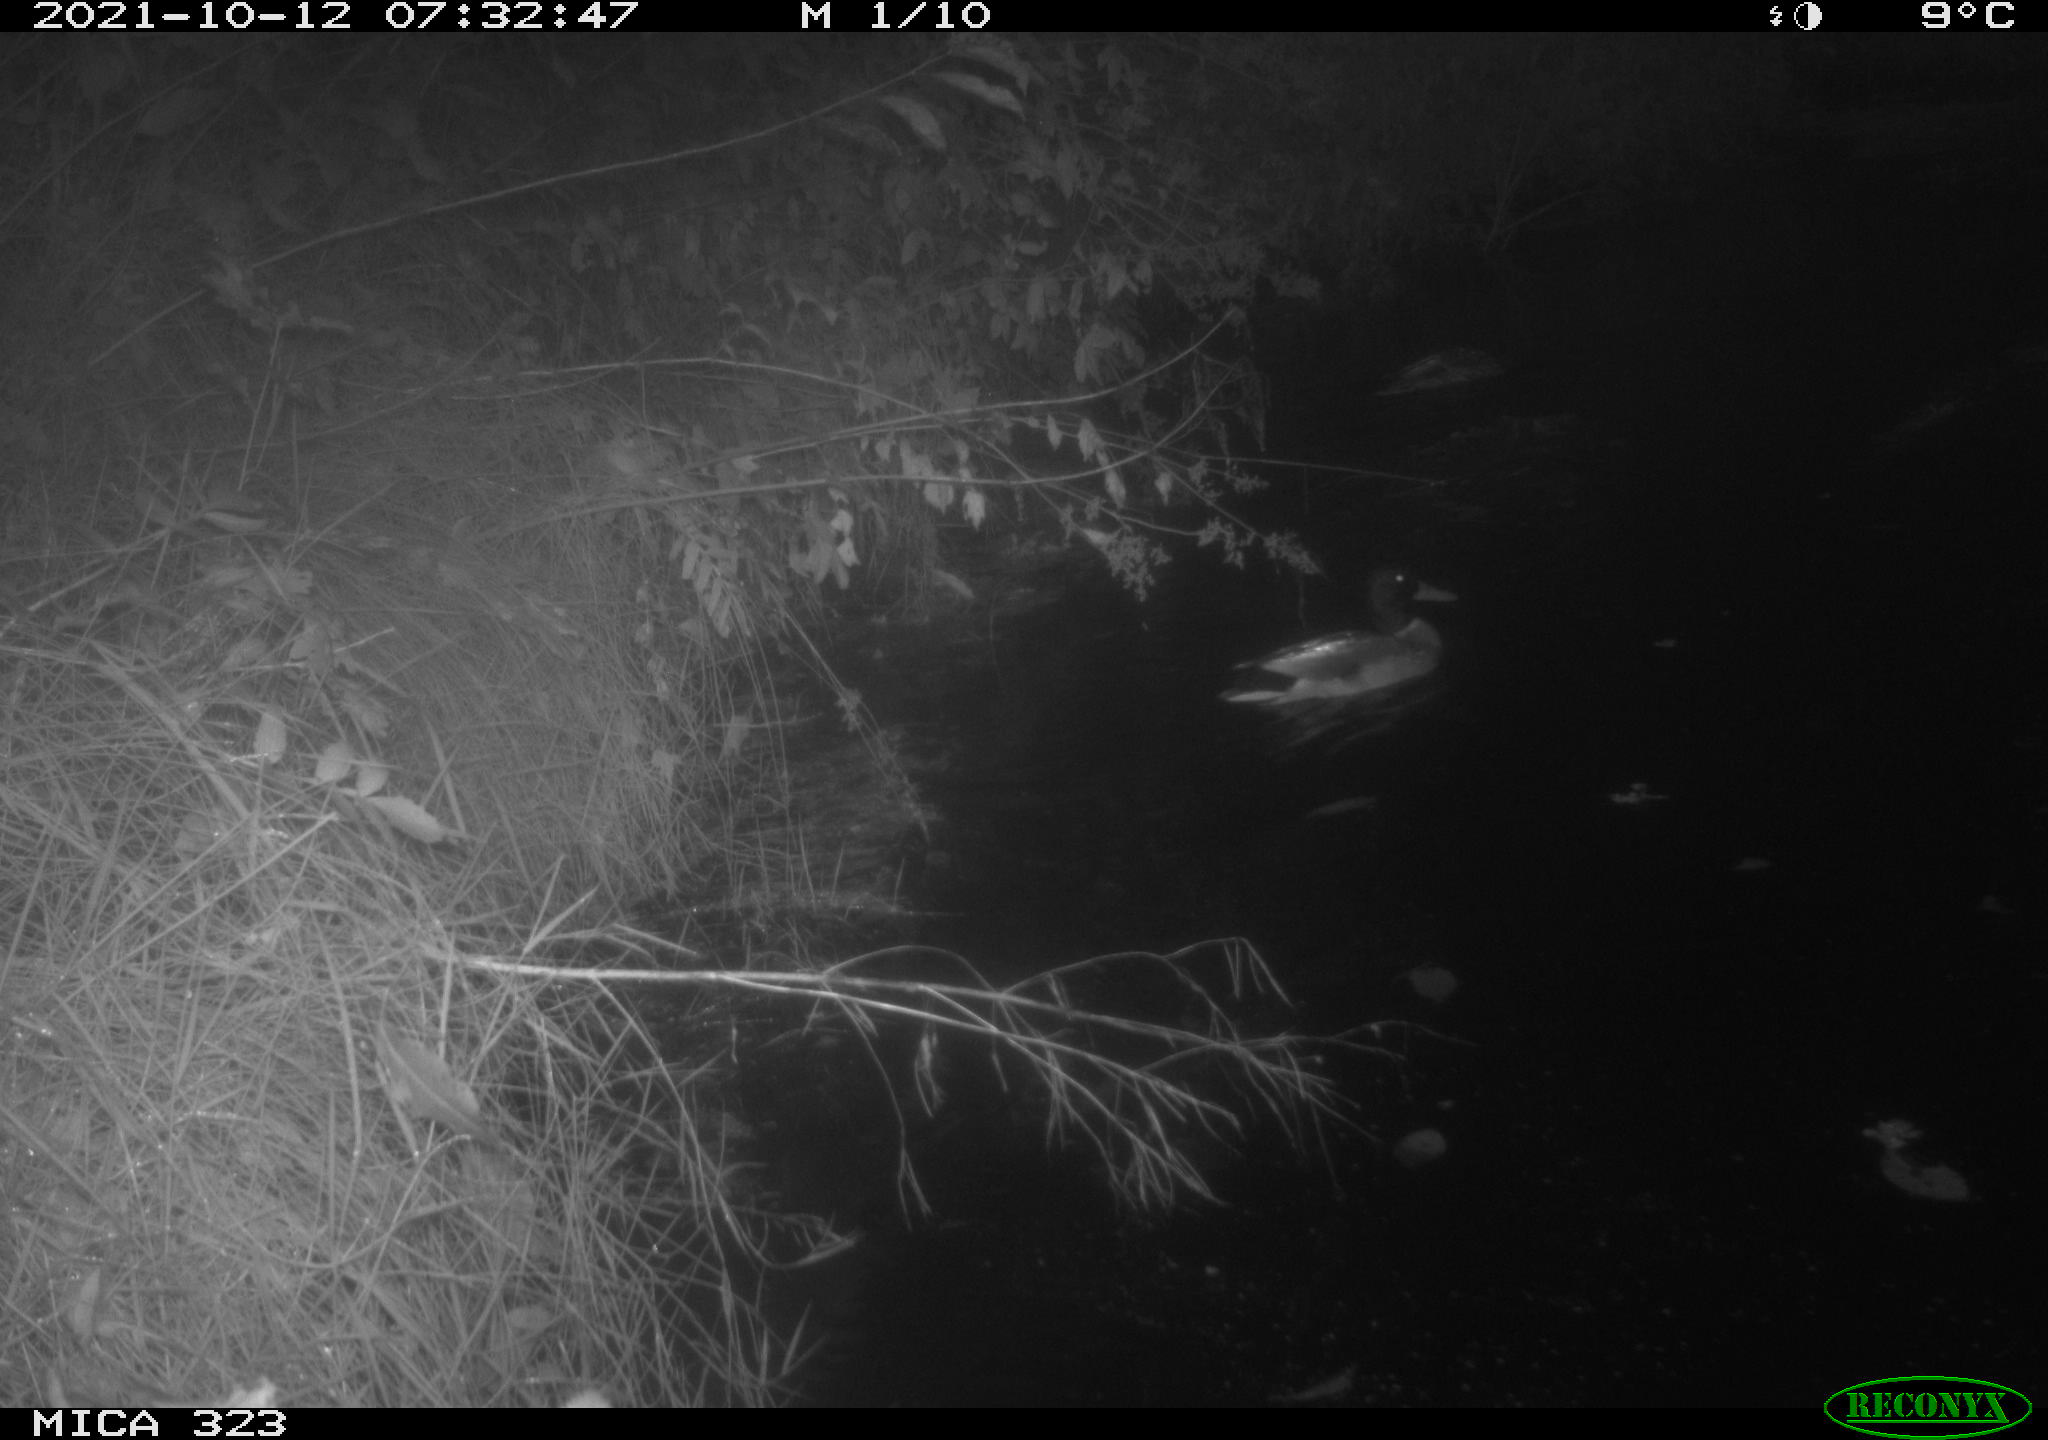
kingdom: Animalia
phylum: Chordata
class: Aves
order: Anseriformes
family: Anatidae
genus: Anas
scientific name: Anas platyrhynchos
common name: Mallard
